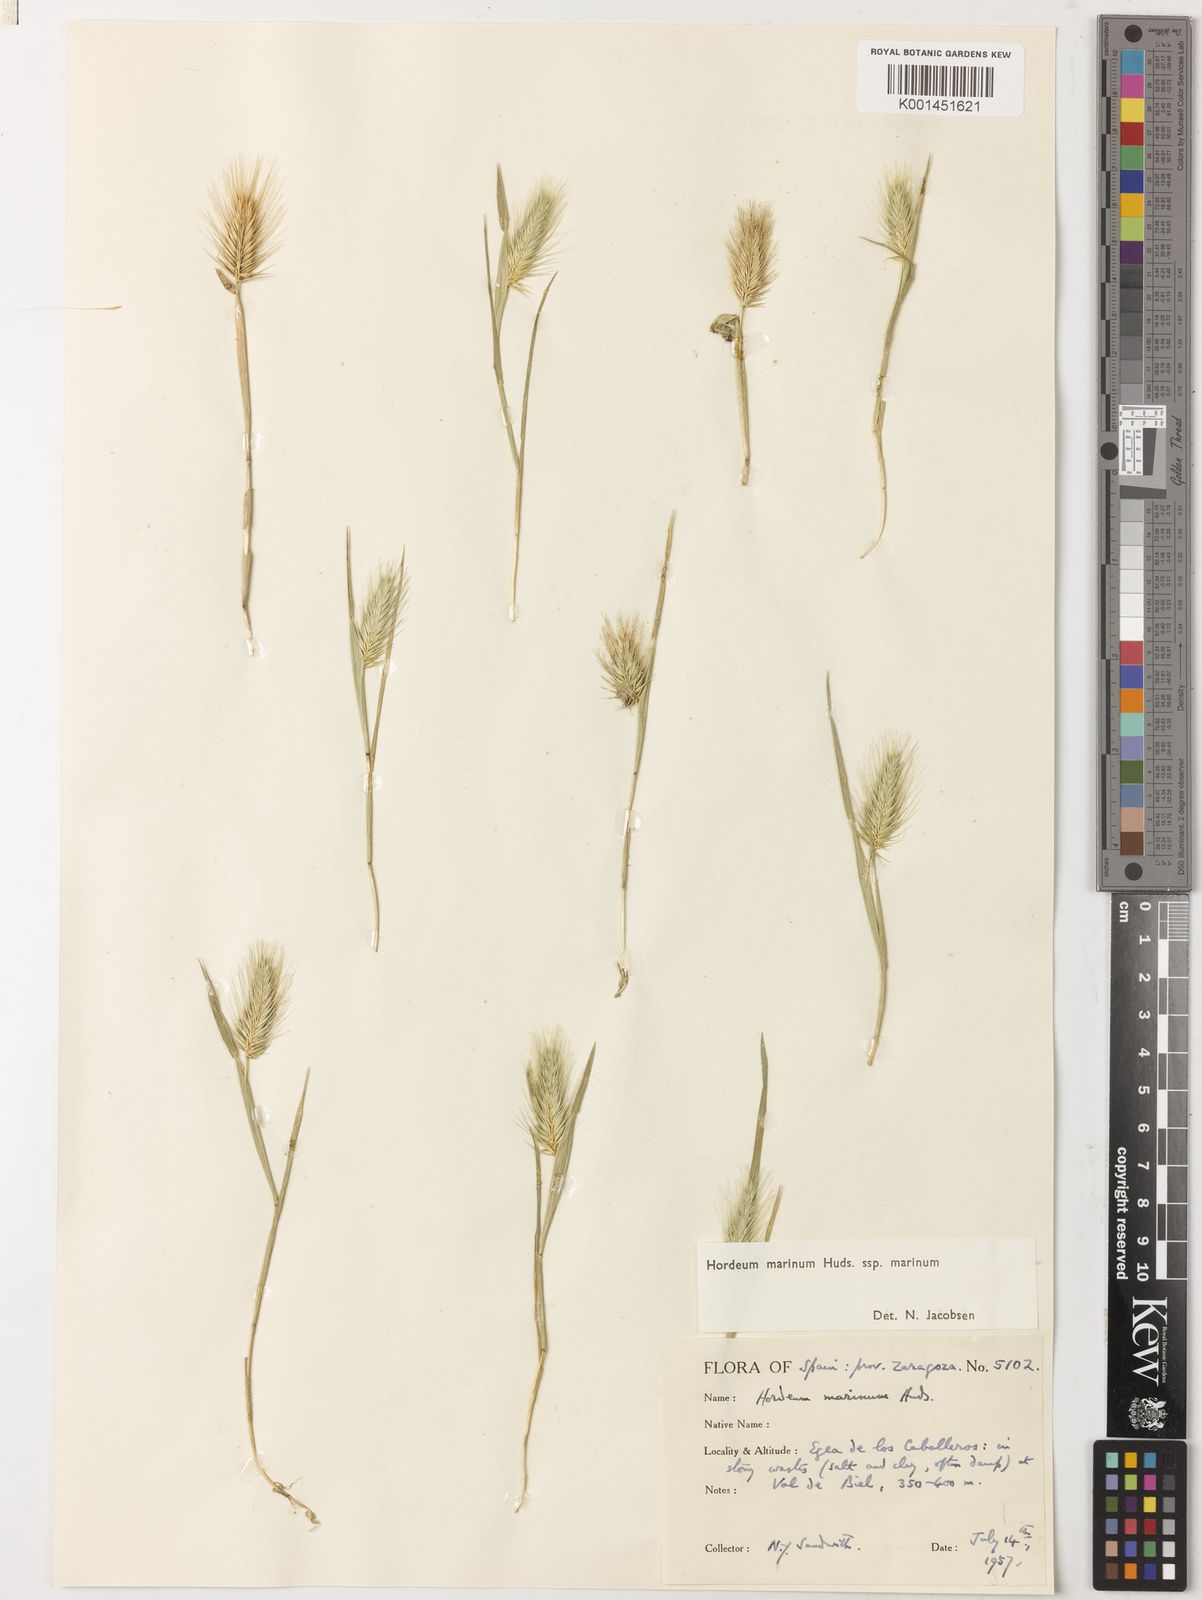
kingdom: Plantae
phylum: Tracheophyta
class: Liliopsida
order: Poales
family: Poaceae
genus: Hordeum
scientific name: Hordeum marinum
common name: Sea barley
